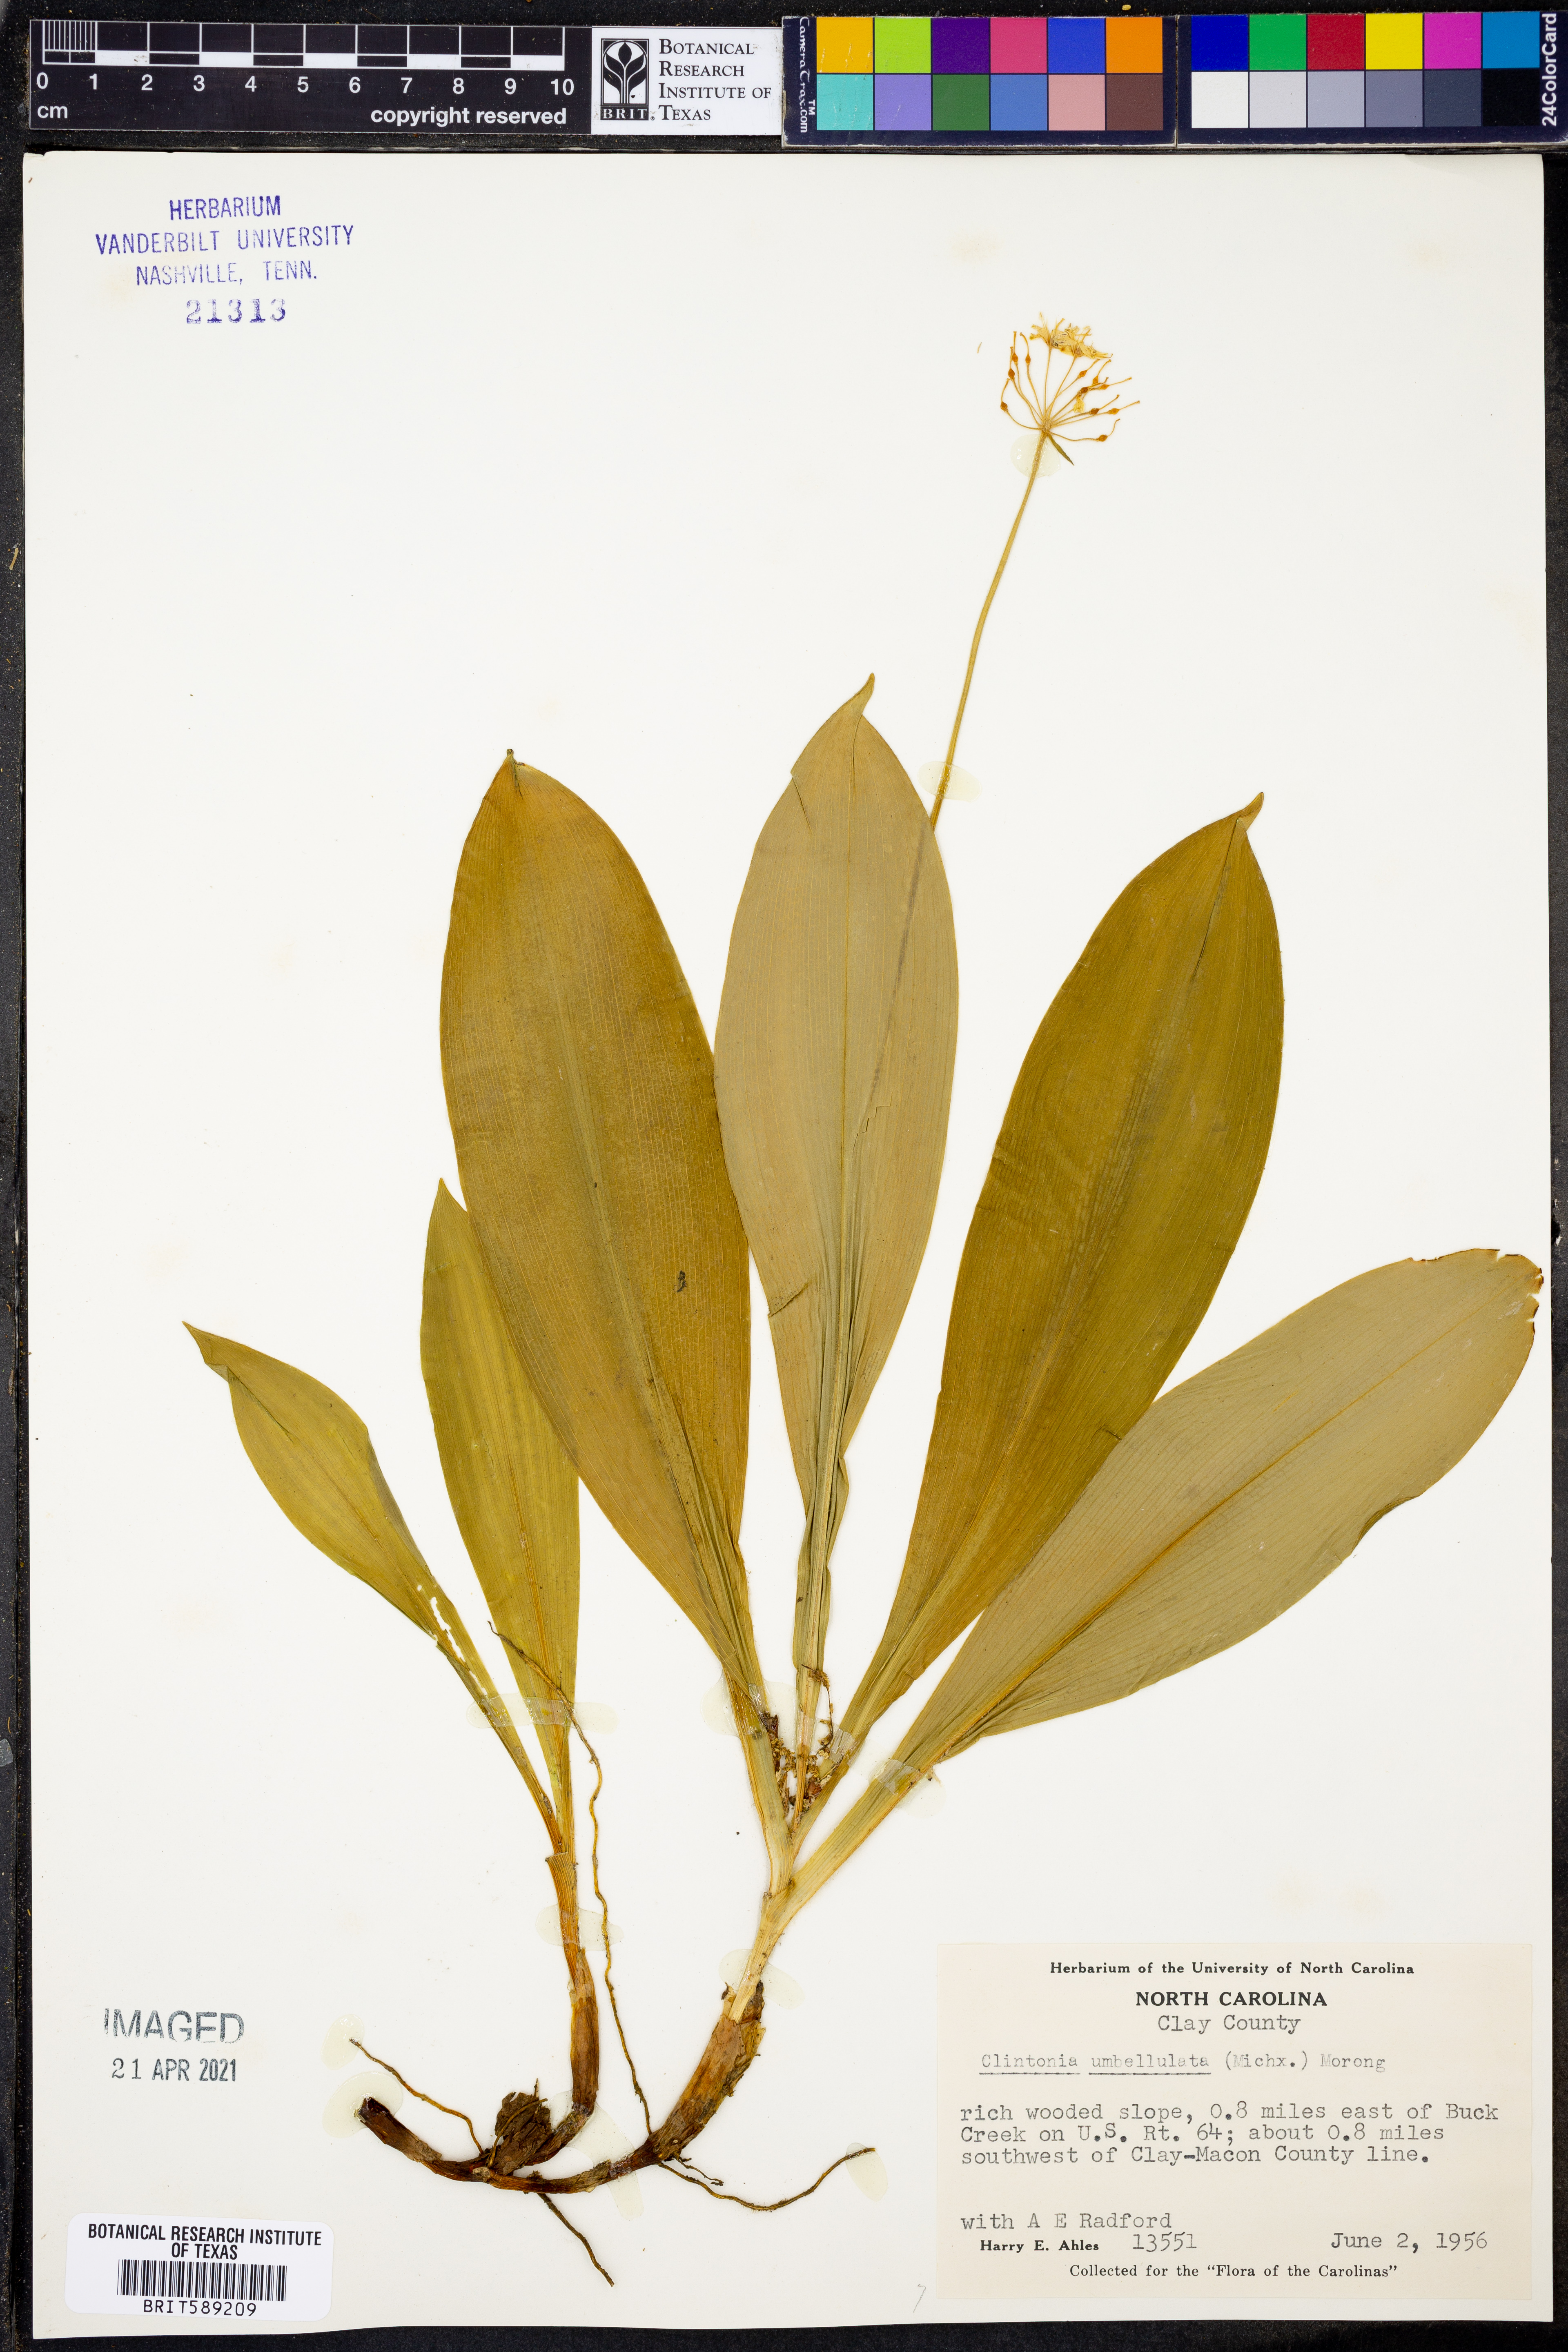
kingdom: Plantae
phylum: Tracheophyta
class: Liliopsida
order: Liliales
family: Liliaceae
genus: Clintonia
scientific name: Clintonia umbellulata
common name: Speckle wood-lily
